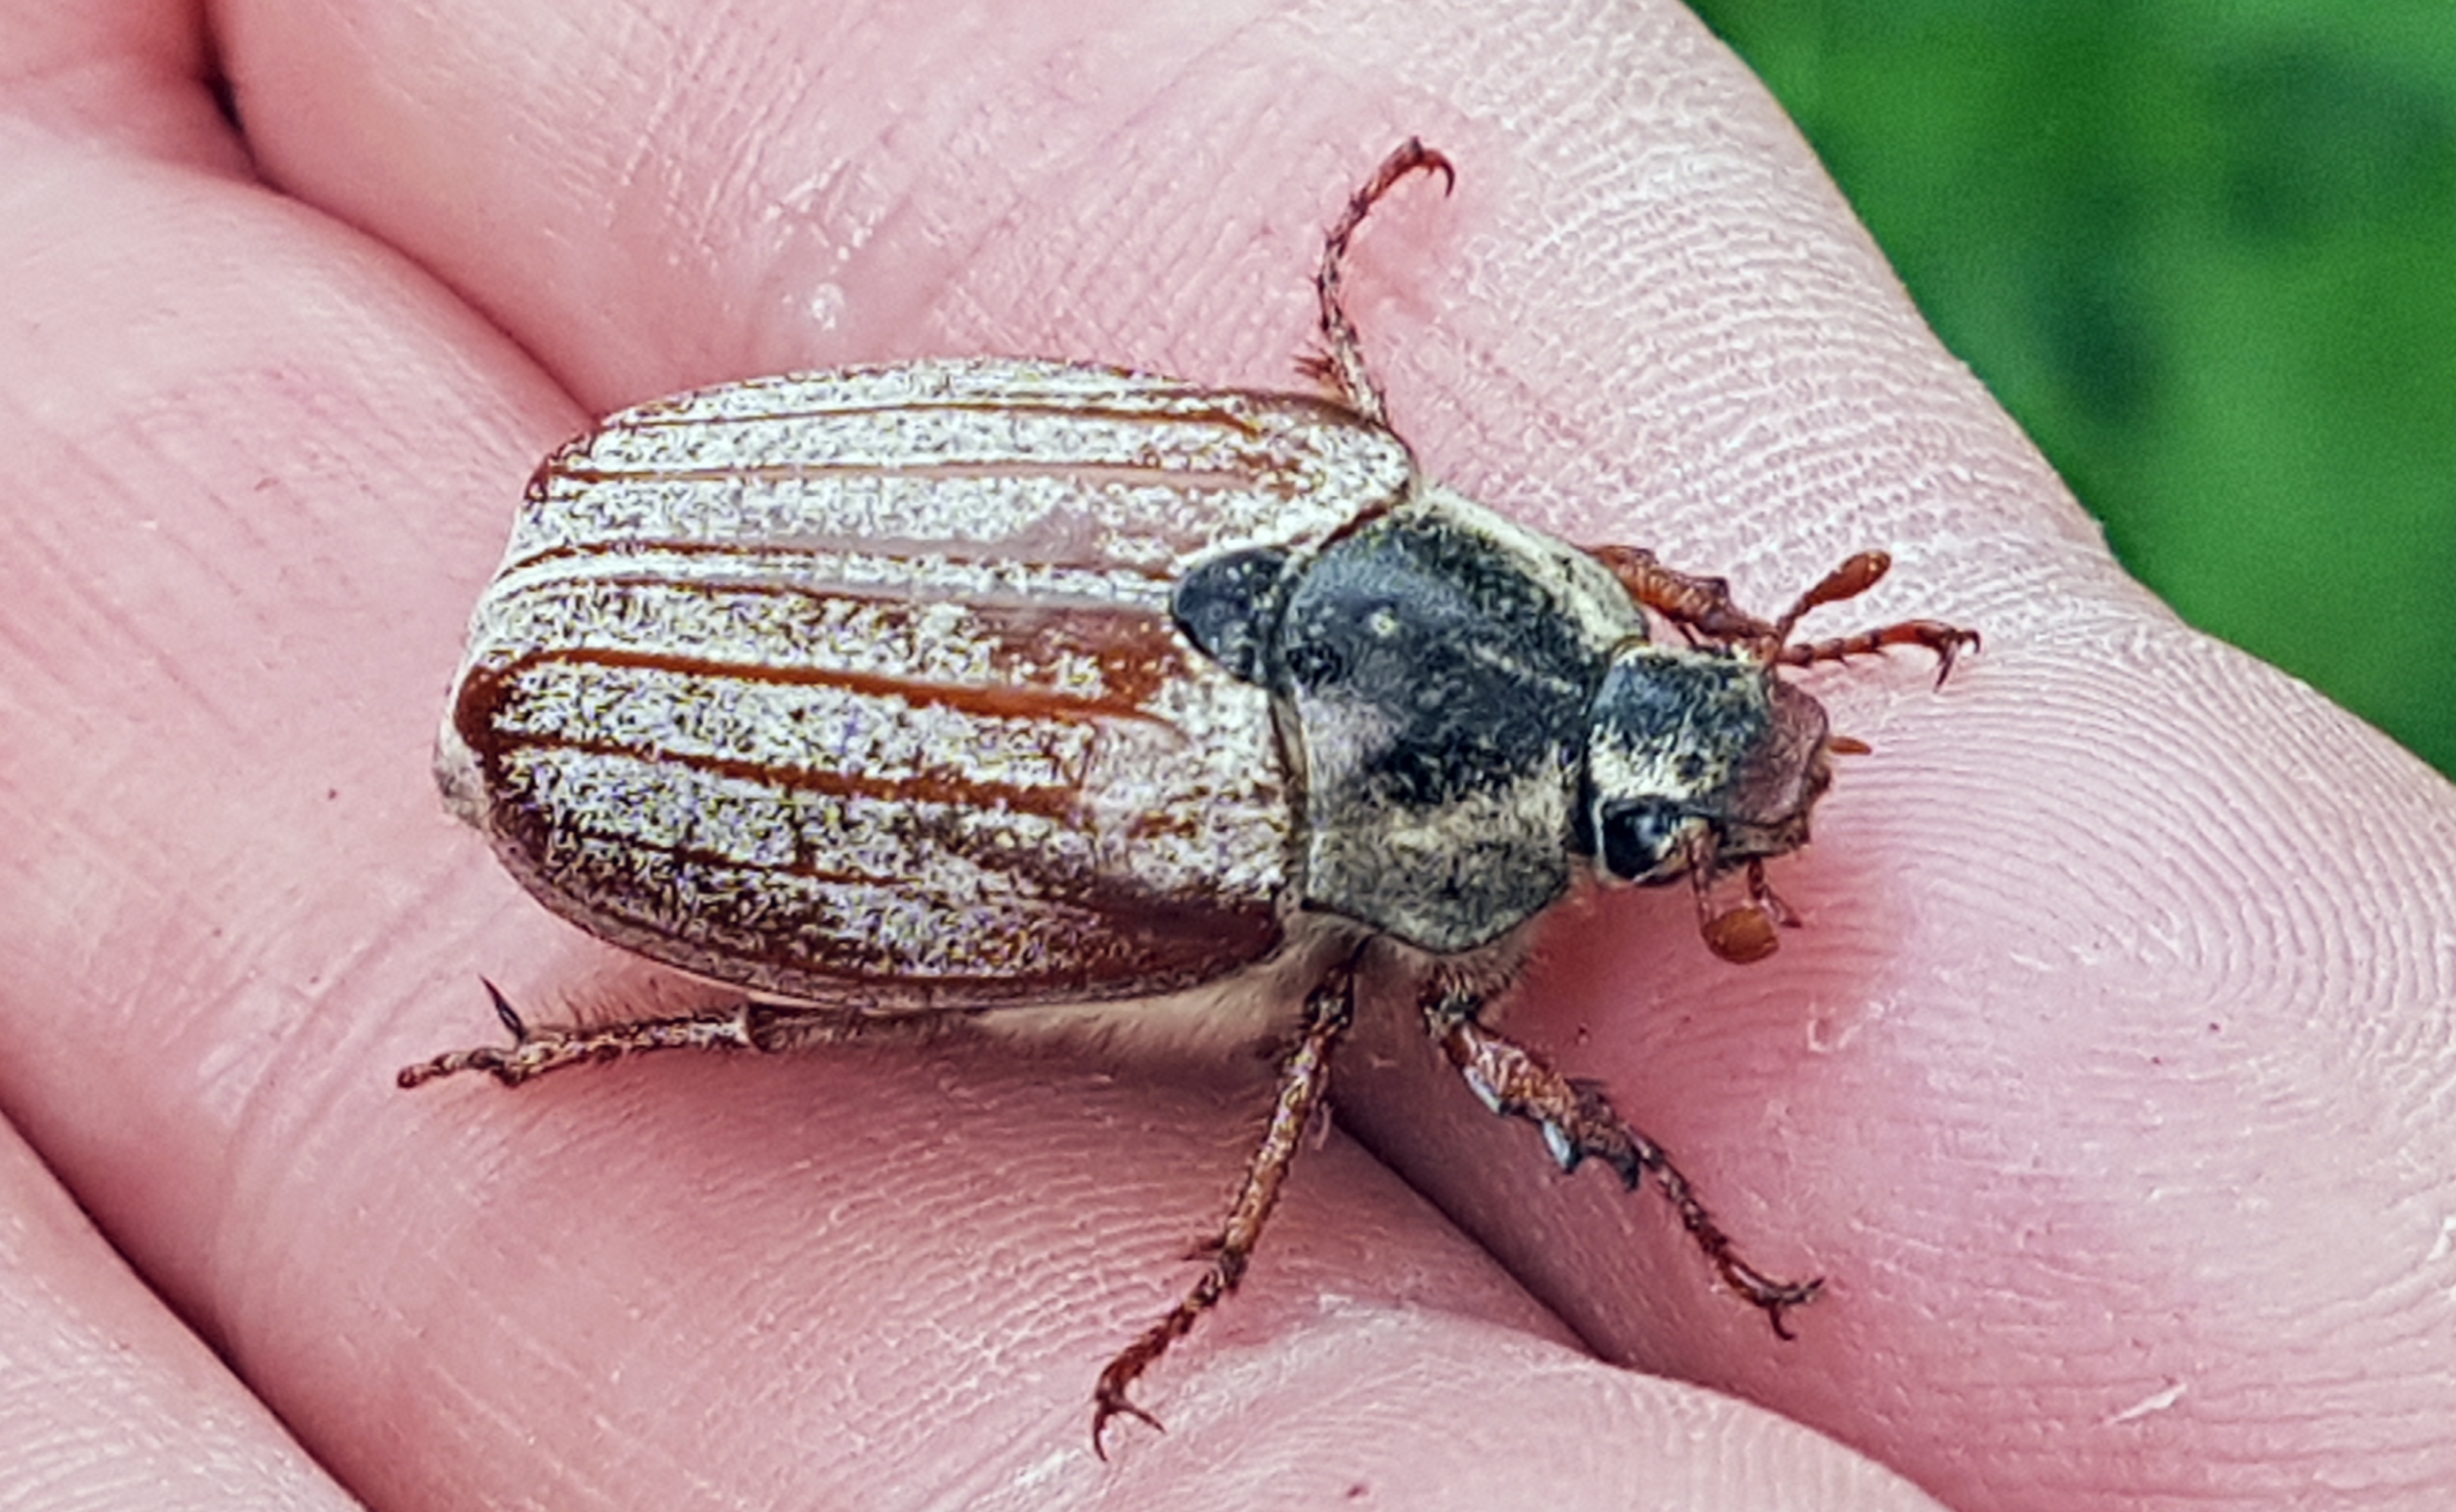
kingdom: Animalia
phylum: Arthropoda
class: Insecta
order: Coleoptera
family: Scarabaeidae
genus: Melolontha
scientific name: Melolontha melolontha
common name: Almindelig oldenborre
